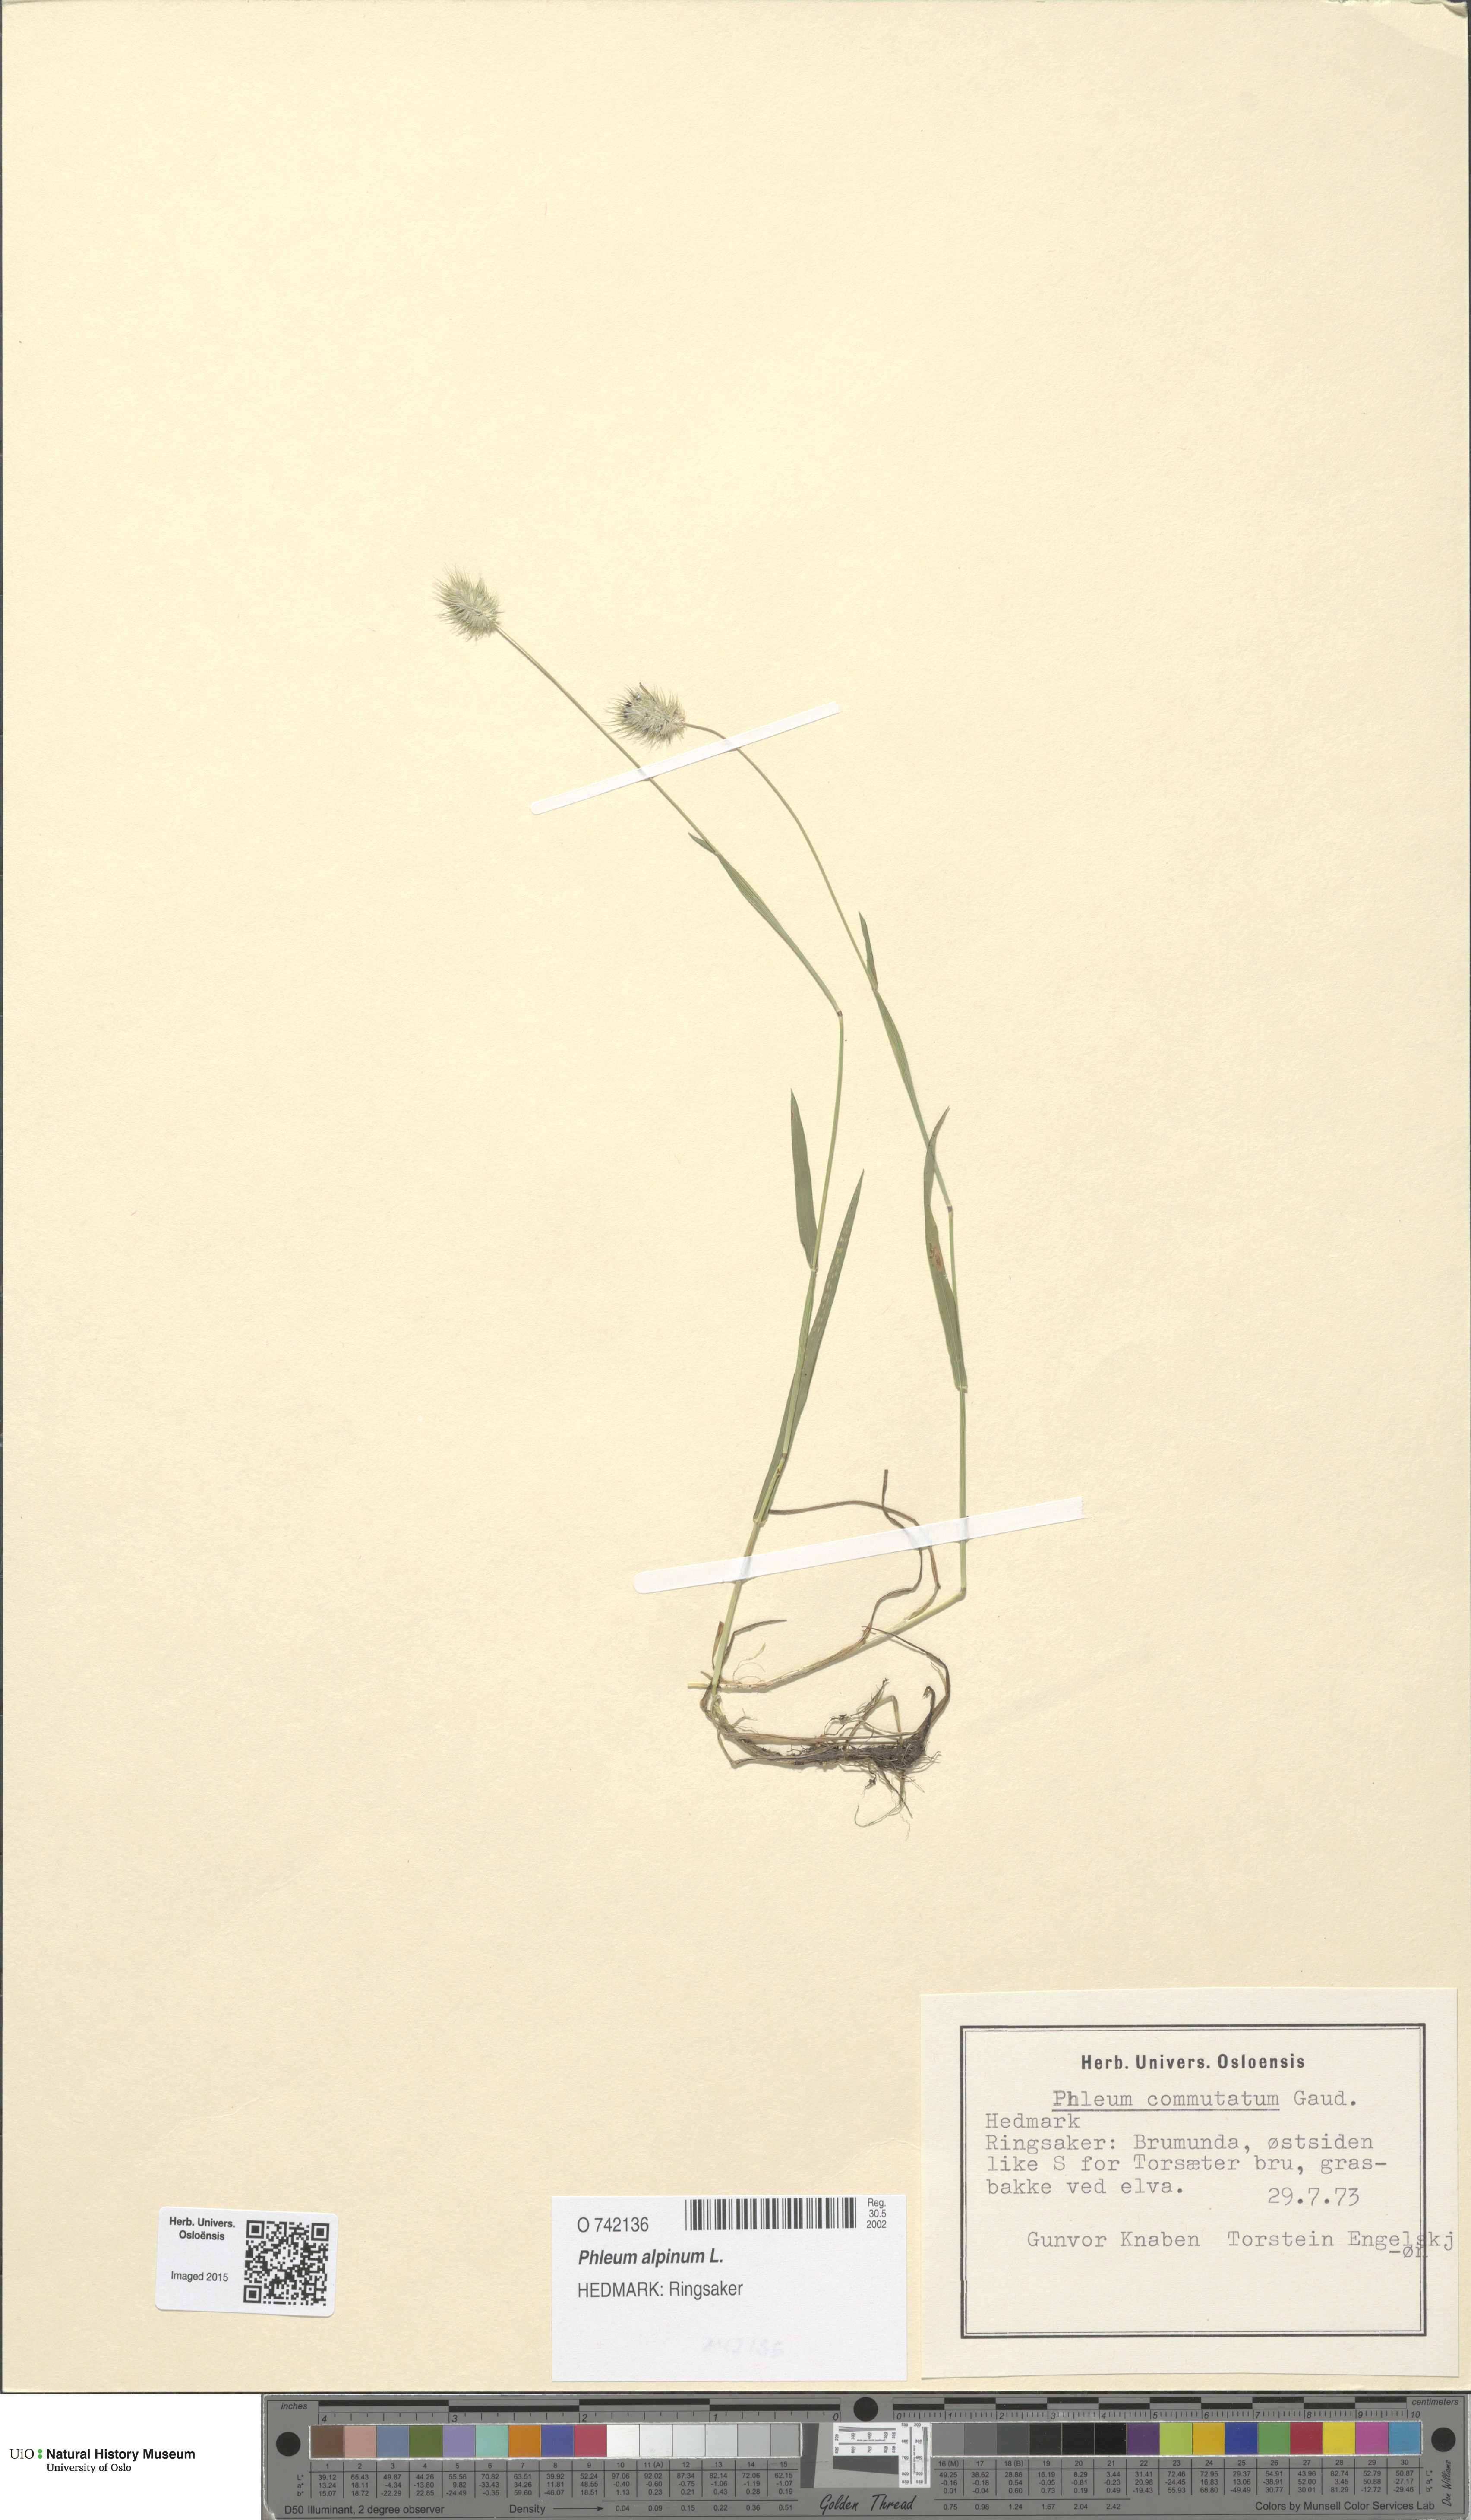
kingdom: Plantae
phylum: Tracheophyta
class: Liliopsida
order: Poales
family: Poaceae
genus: Phleum
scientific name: Phleum alpinum
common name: Alpine cat's-tail
